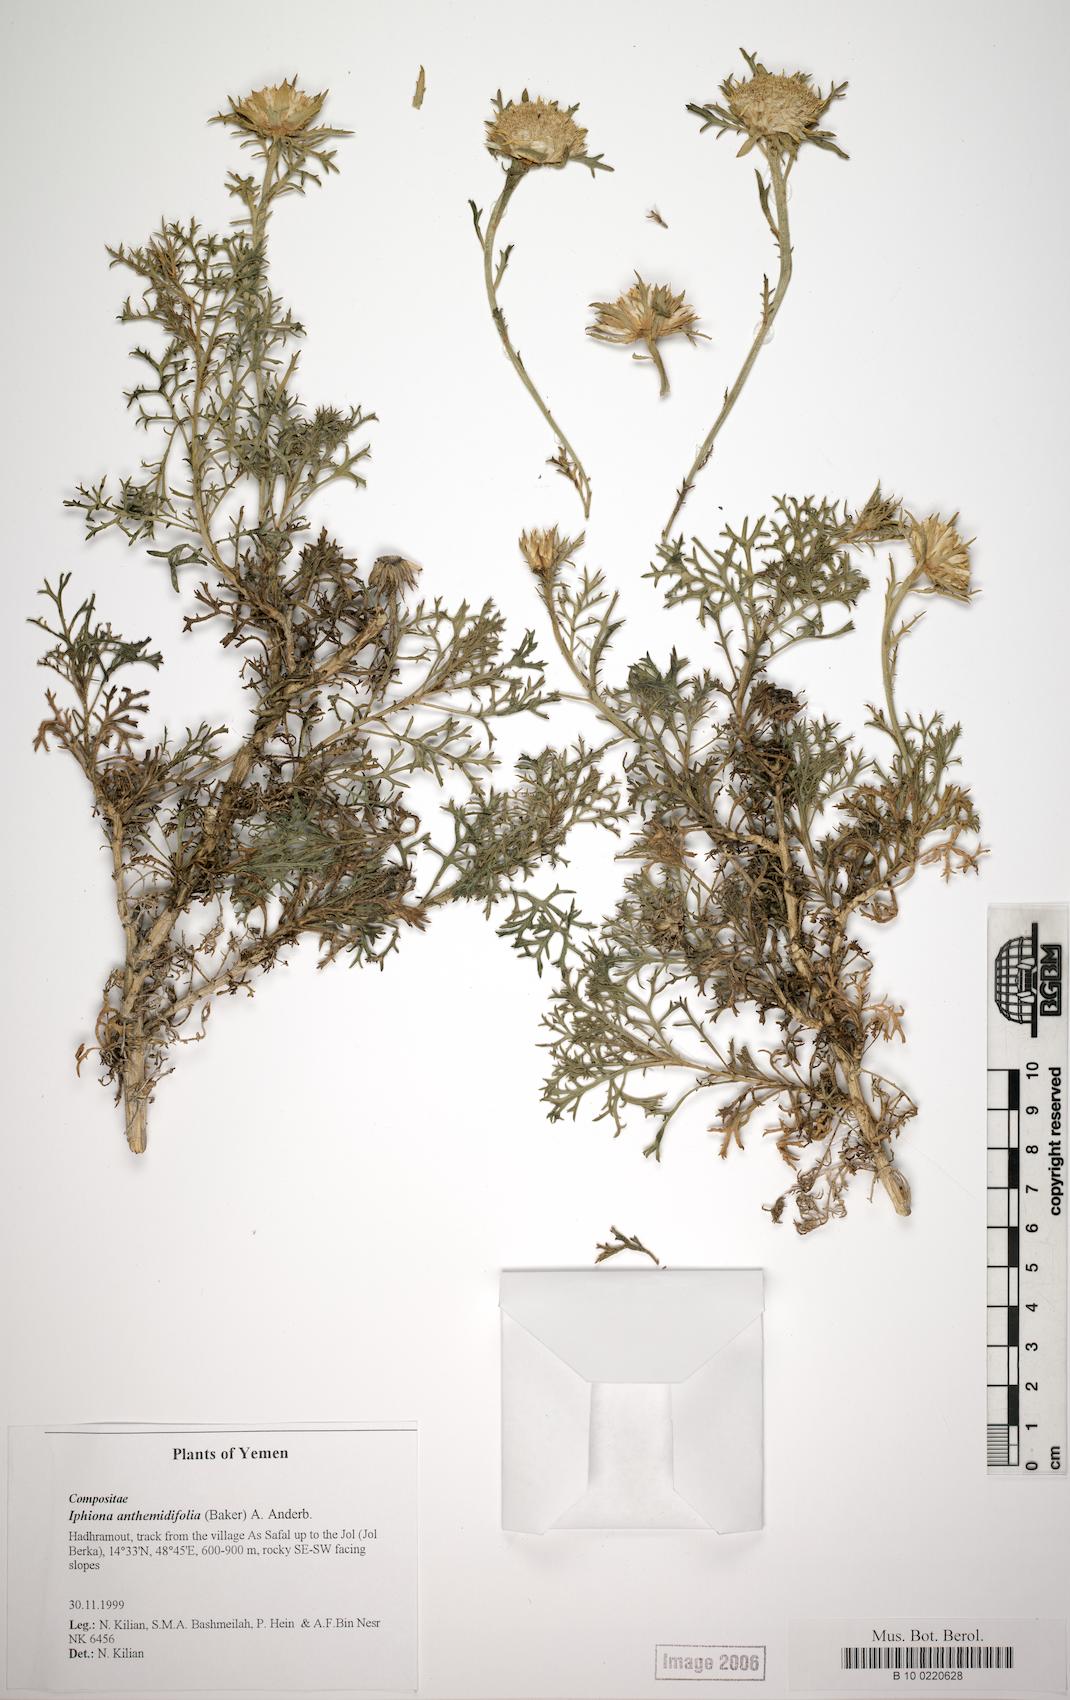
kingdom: Plantae
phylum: Tracheophyta
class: Magnoliopsida
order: Caryophyllales
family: Caryophyllaceae
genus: Arenaria
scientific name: Arenaria serpyllifolia
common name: Thyme-leaved sandwort
